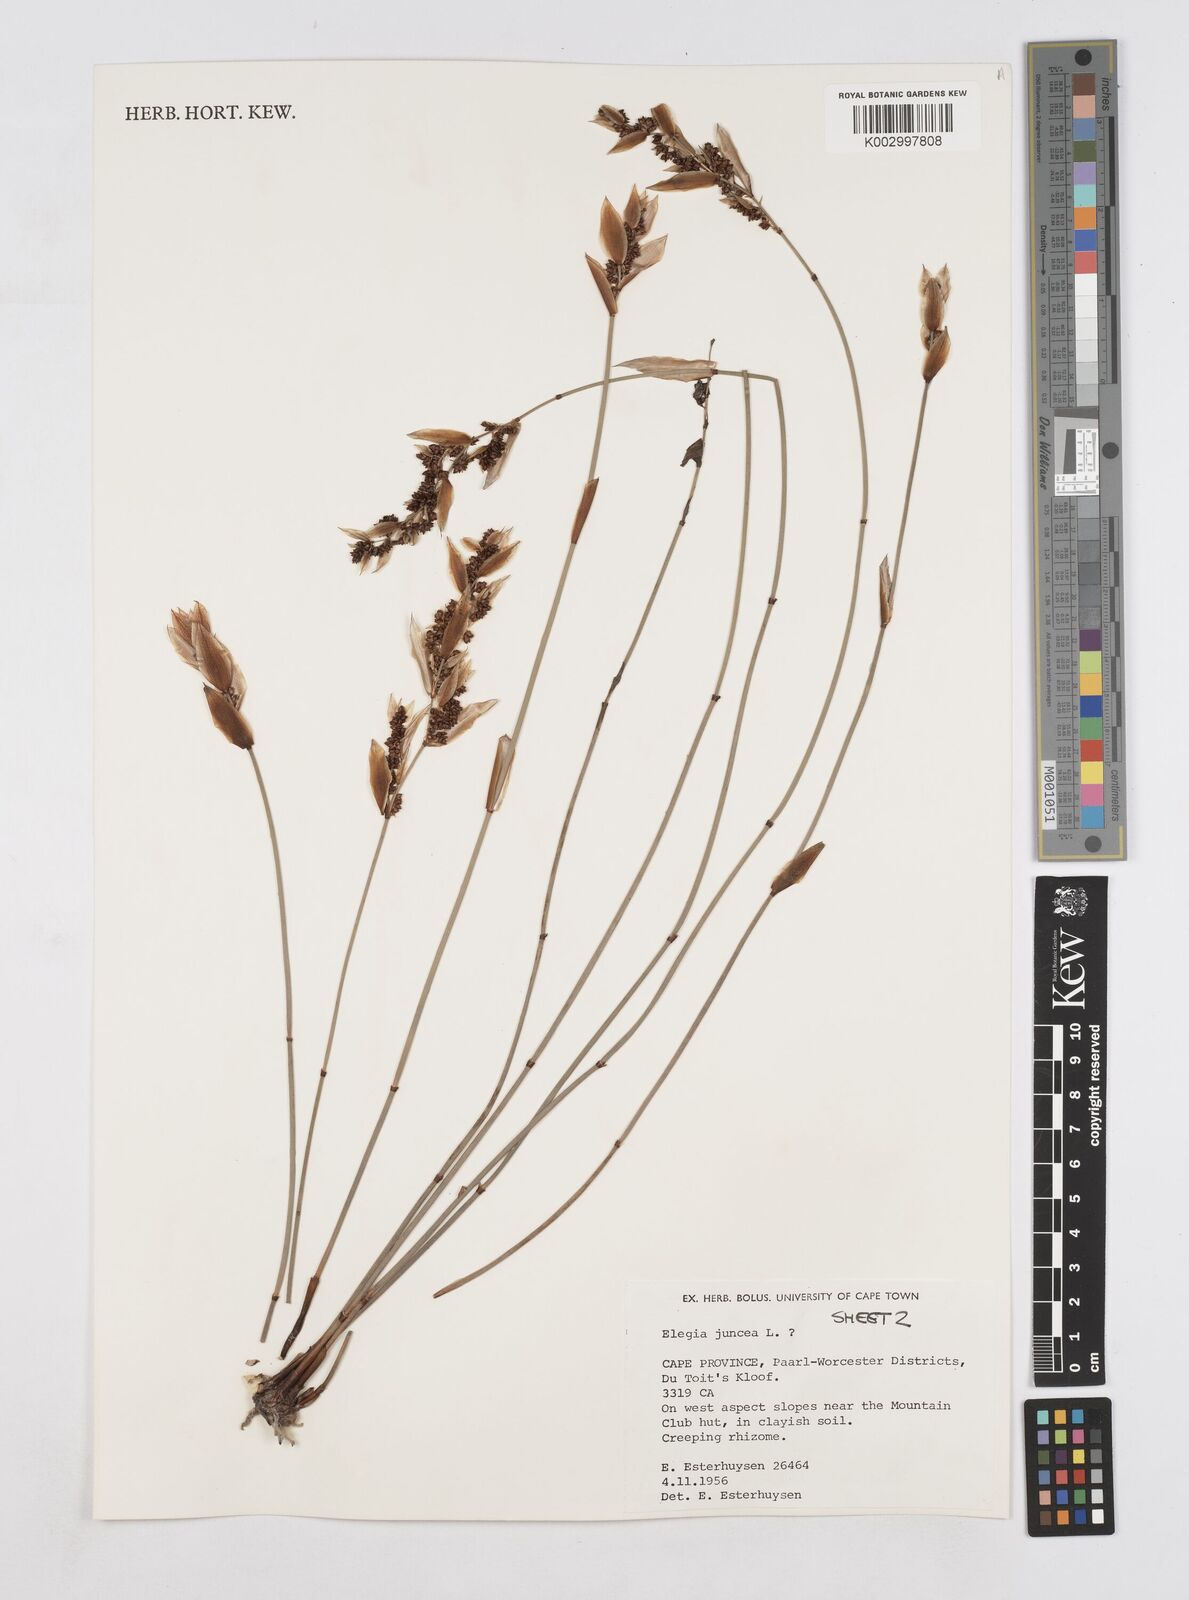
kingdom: Plantae
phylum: Tracheophyta
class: Liliopsida
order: Poales
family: Restionaceae
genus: Elegia
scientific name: Elegia juncea
